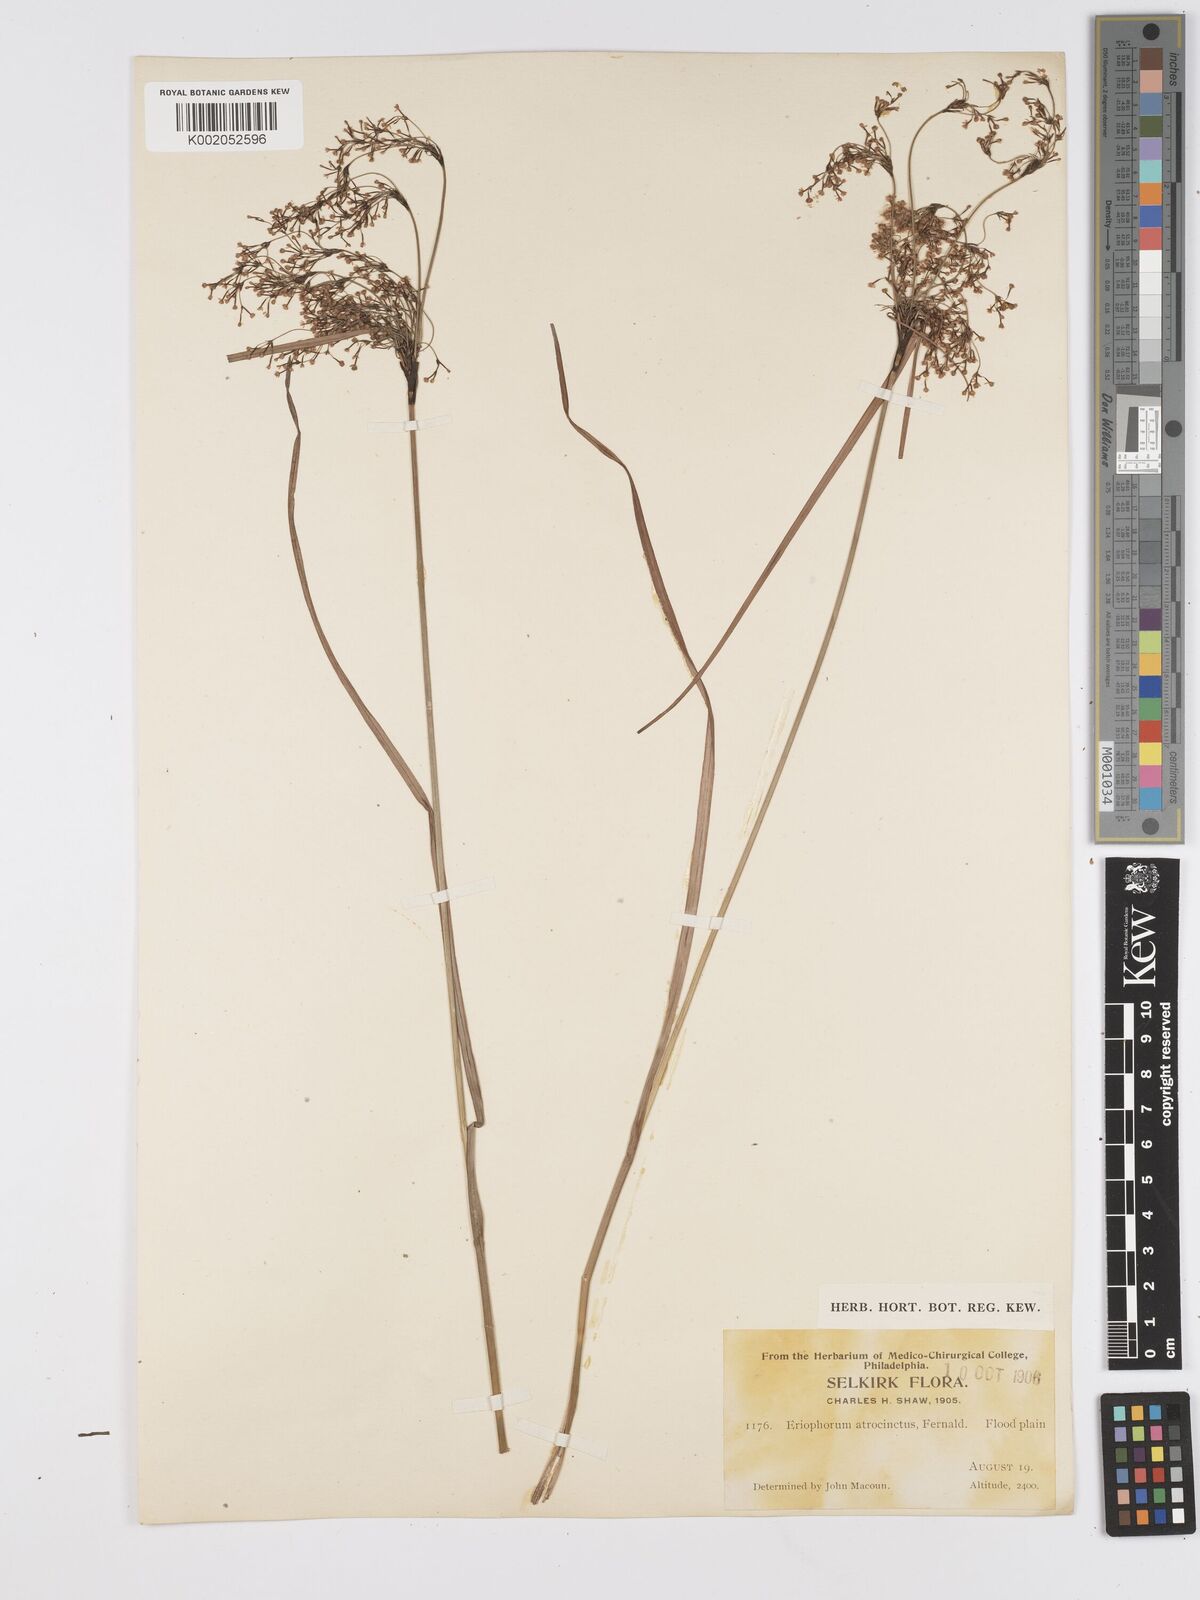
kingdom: Plantae
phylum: Tracheophyta
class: Liliopsida
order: Poales
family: Cyperaceae
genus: Scirpus
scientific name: Scirpus atrocinctus
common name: Black-girdled bulrush
